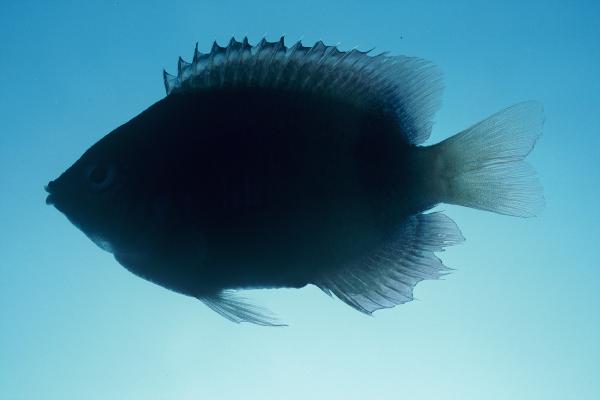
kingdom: Animalia
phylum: Chordata
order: Perciformes
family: Pomacentridae
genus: Plectroglyphidodon
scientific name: Plectroglyphidodon johnstonianus
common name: Johnston damsel
